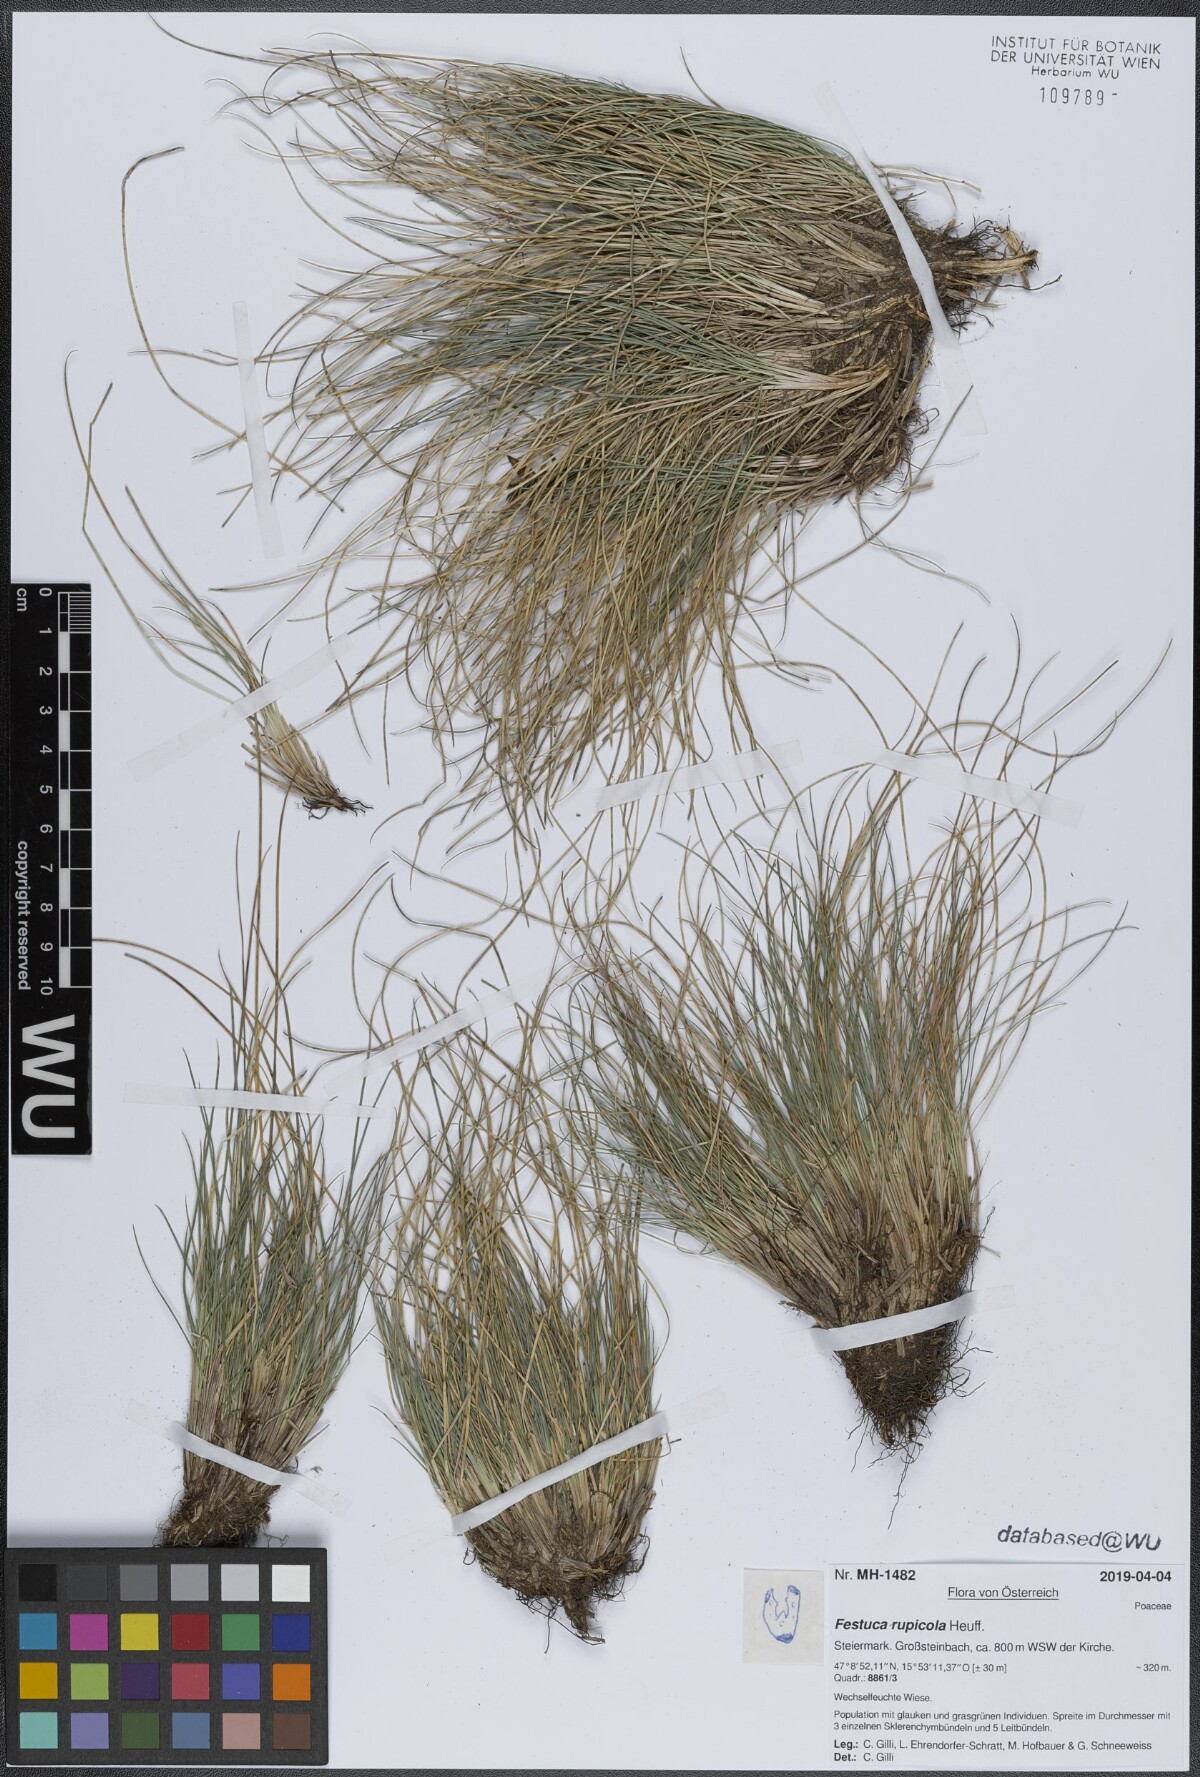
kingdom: Plantae
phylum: Tracheophyta
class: Liliopsida
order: Poales
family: Poaceae
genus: Festuca
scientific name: Festuca rupicola
